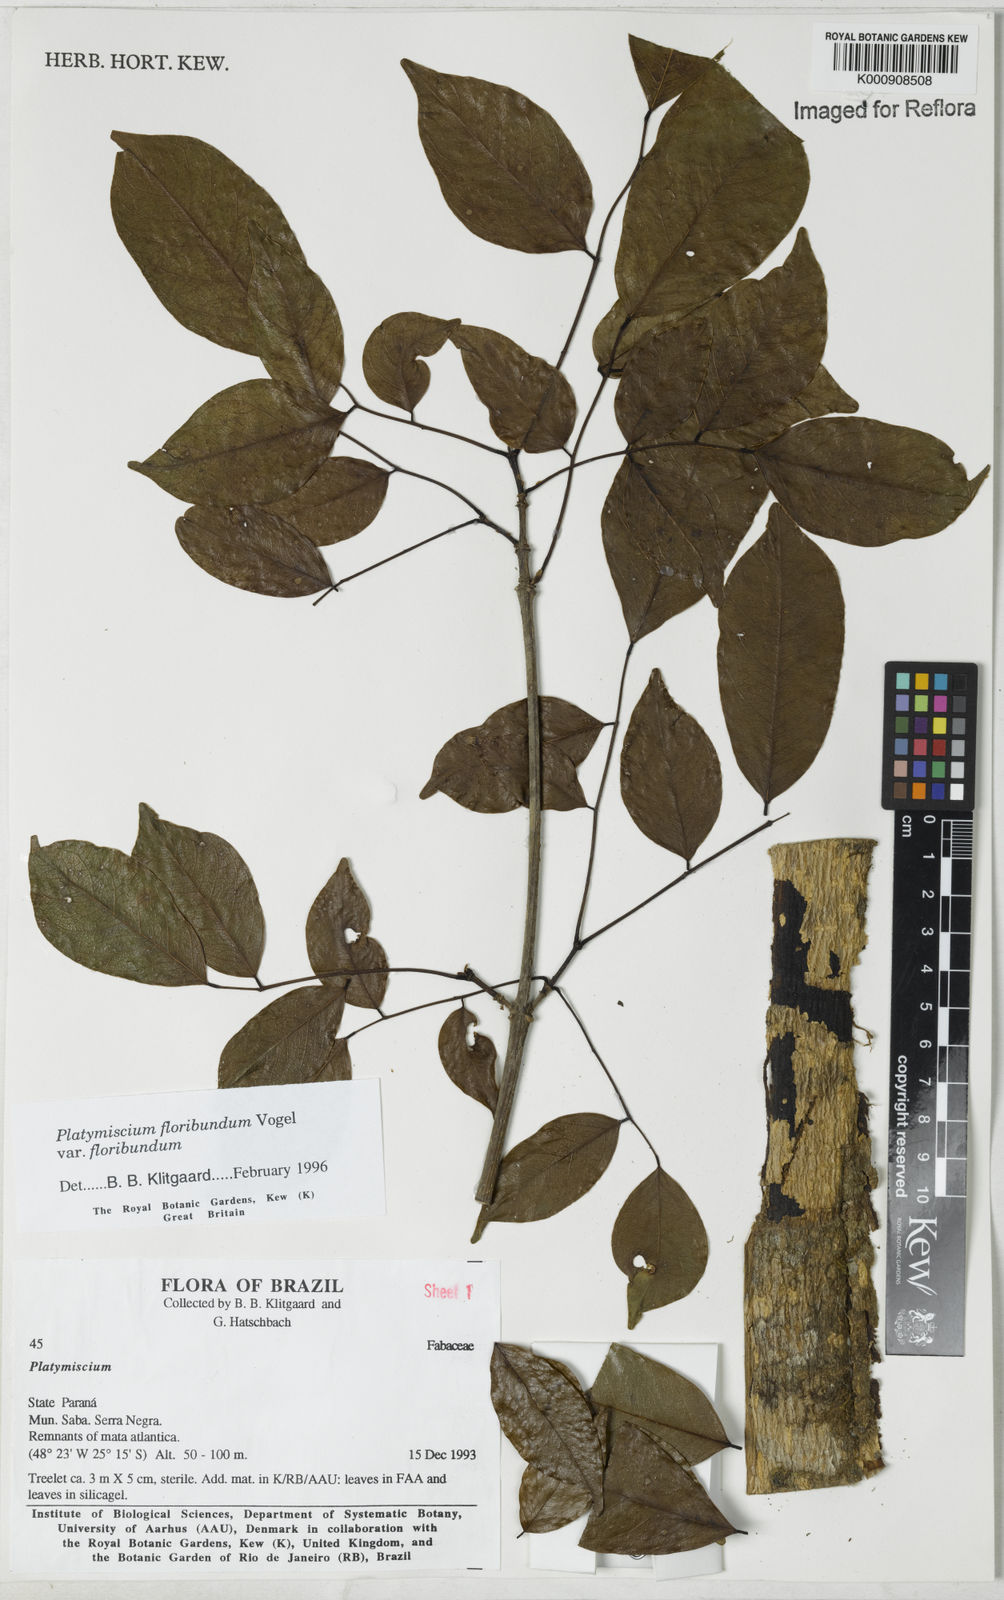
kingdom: Plantae
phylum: Tracheophyta
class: Magnoliopsida
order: Fabales
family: Fabaceae
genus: Platymiscium
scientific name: Platymiscium floribundum
